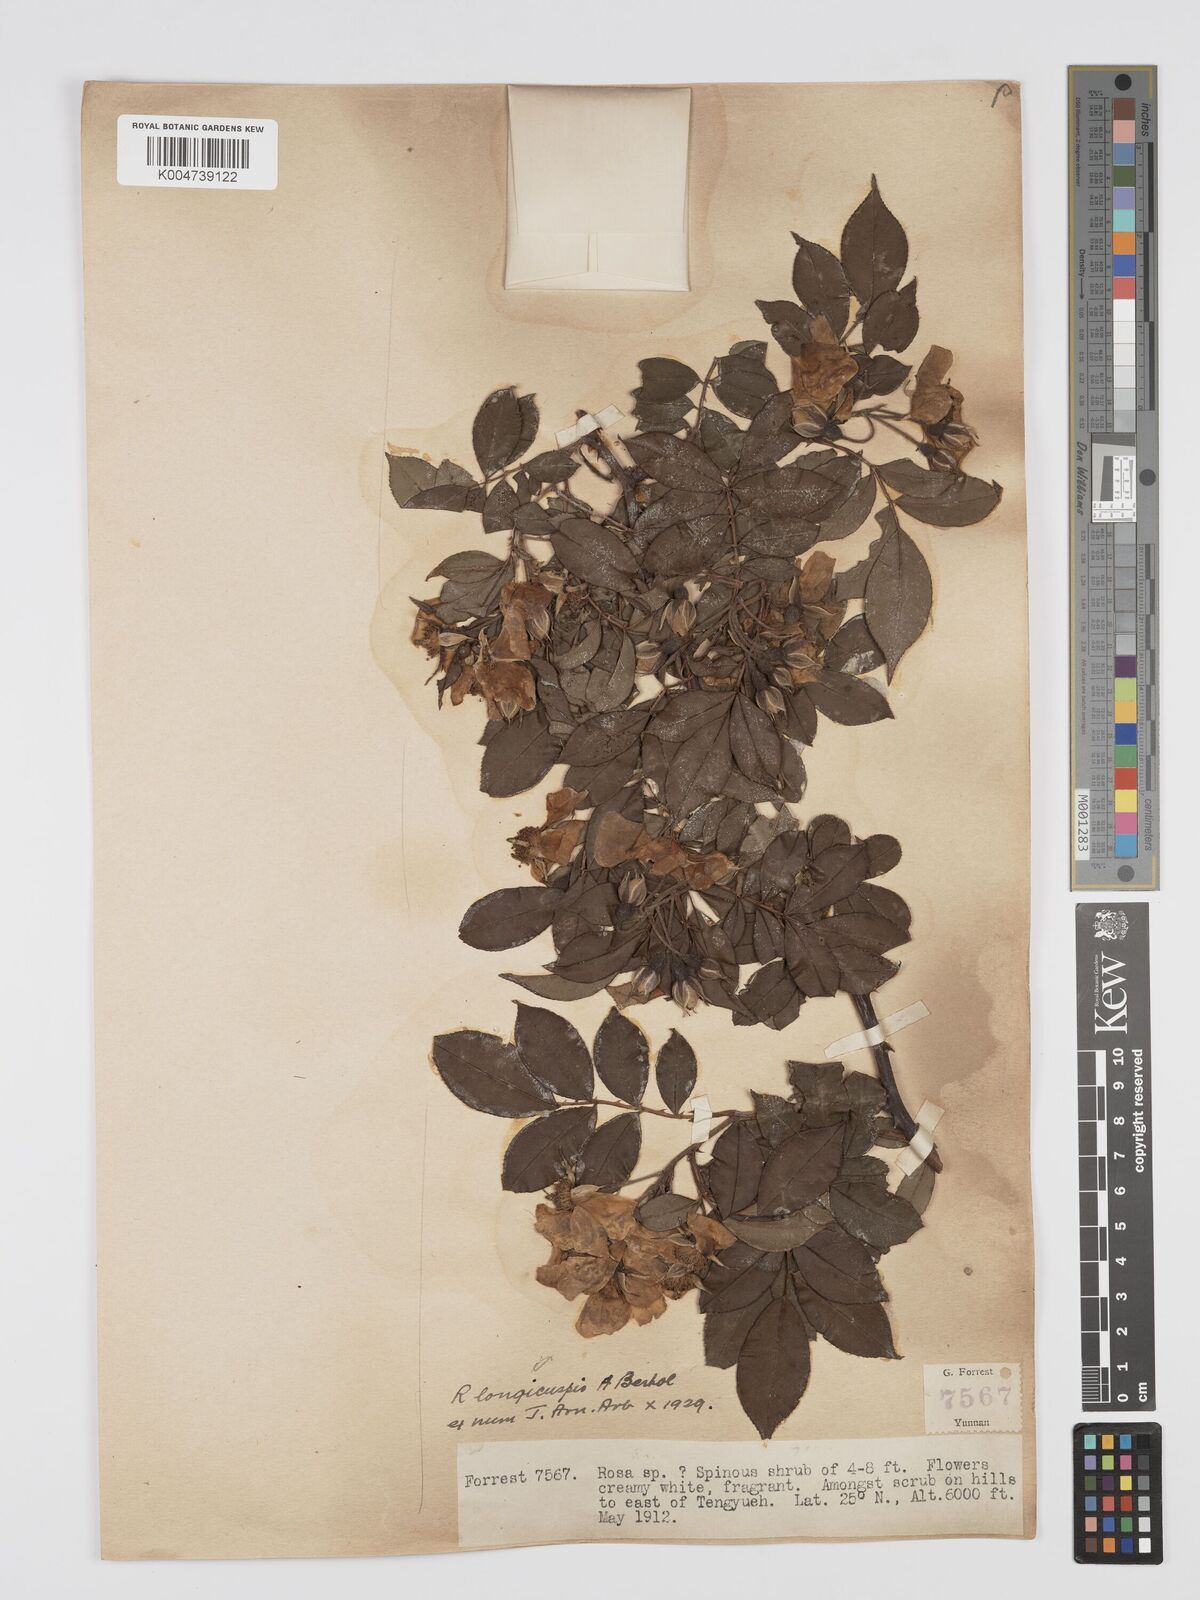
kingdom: Plantae
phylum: Tracheophyta
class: Magnoliopsida
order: Rosales
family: Rosaceae
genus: Rosa
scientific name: Rosa longicuspis
